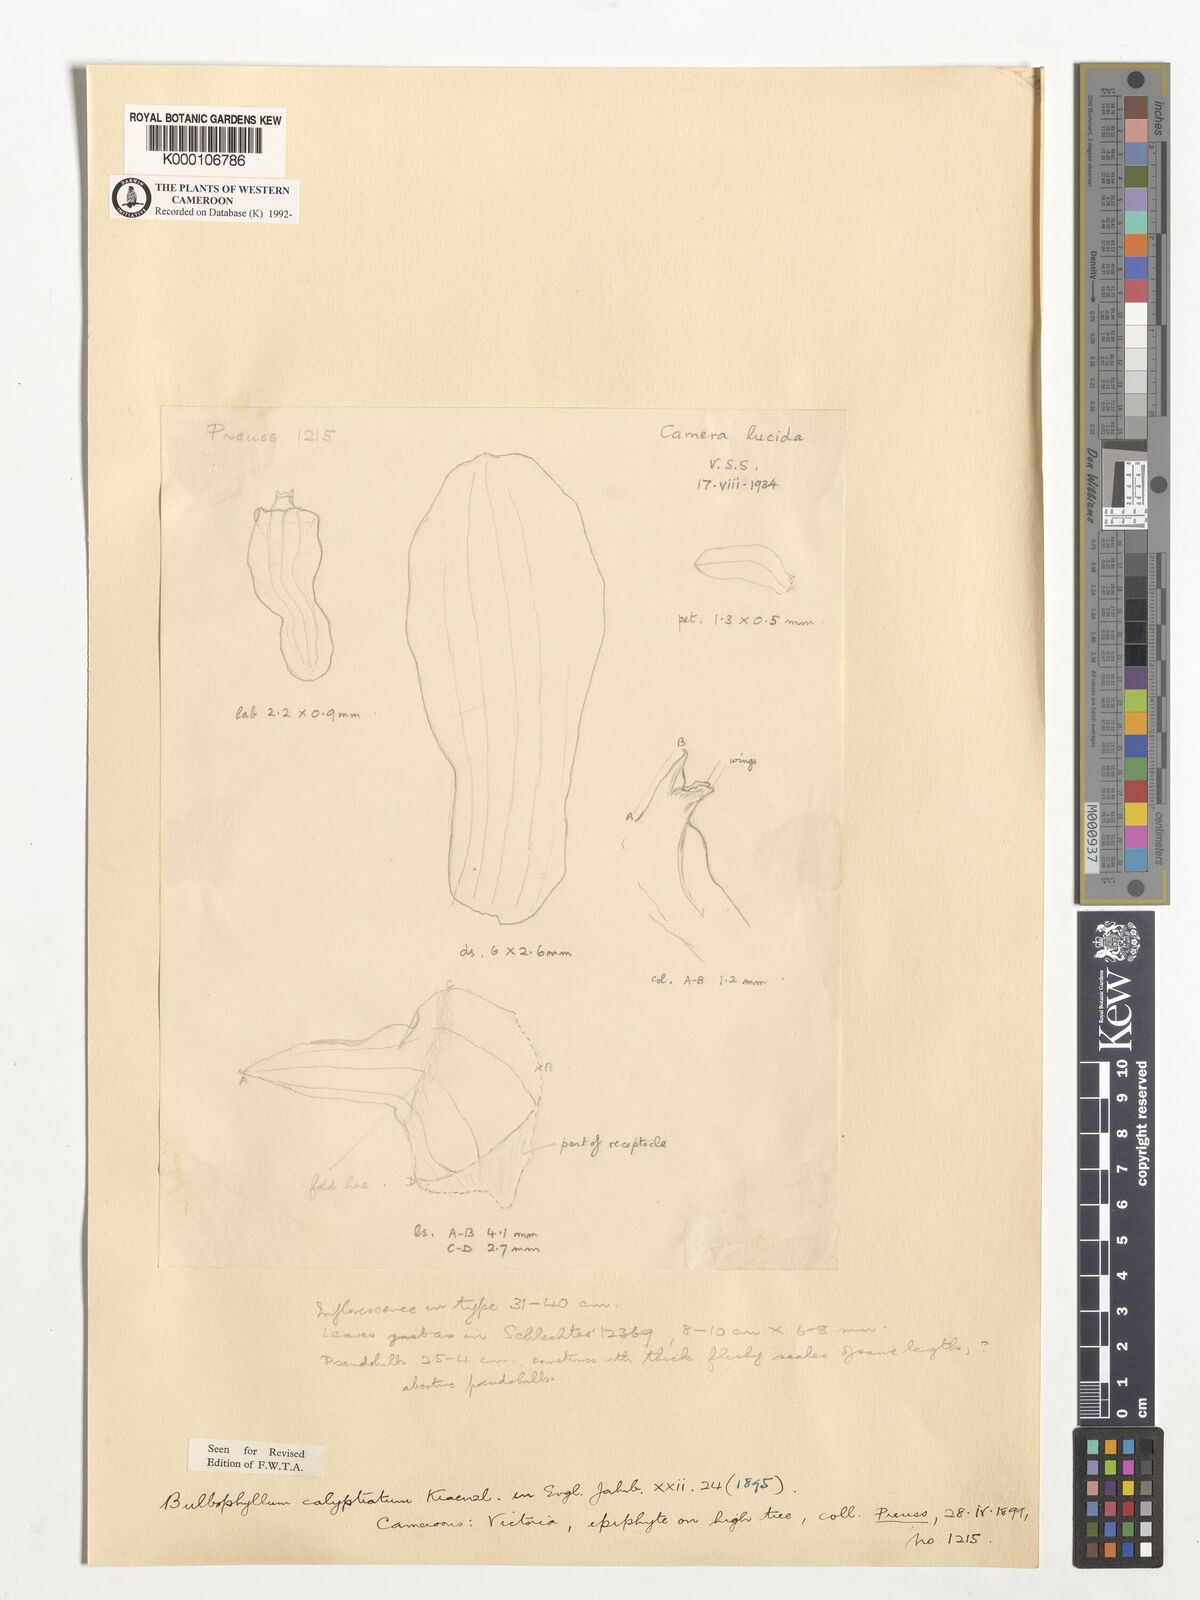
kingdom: Plantae
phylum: Tracheophyta
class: Liliopsida
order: Asparagales
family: Orchidaceae
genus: Bulbophyllum
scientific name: Bulbophyllum calyptratum
